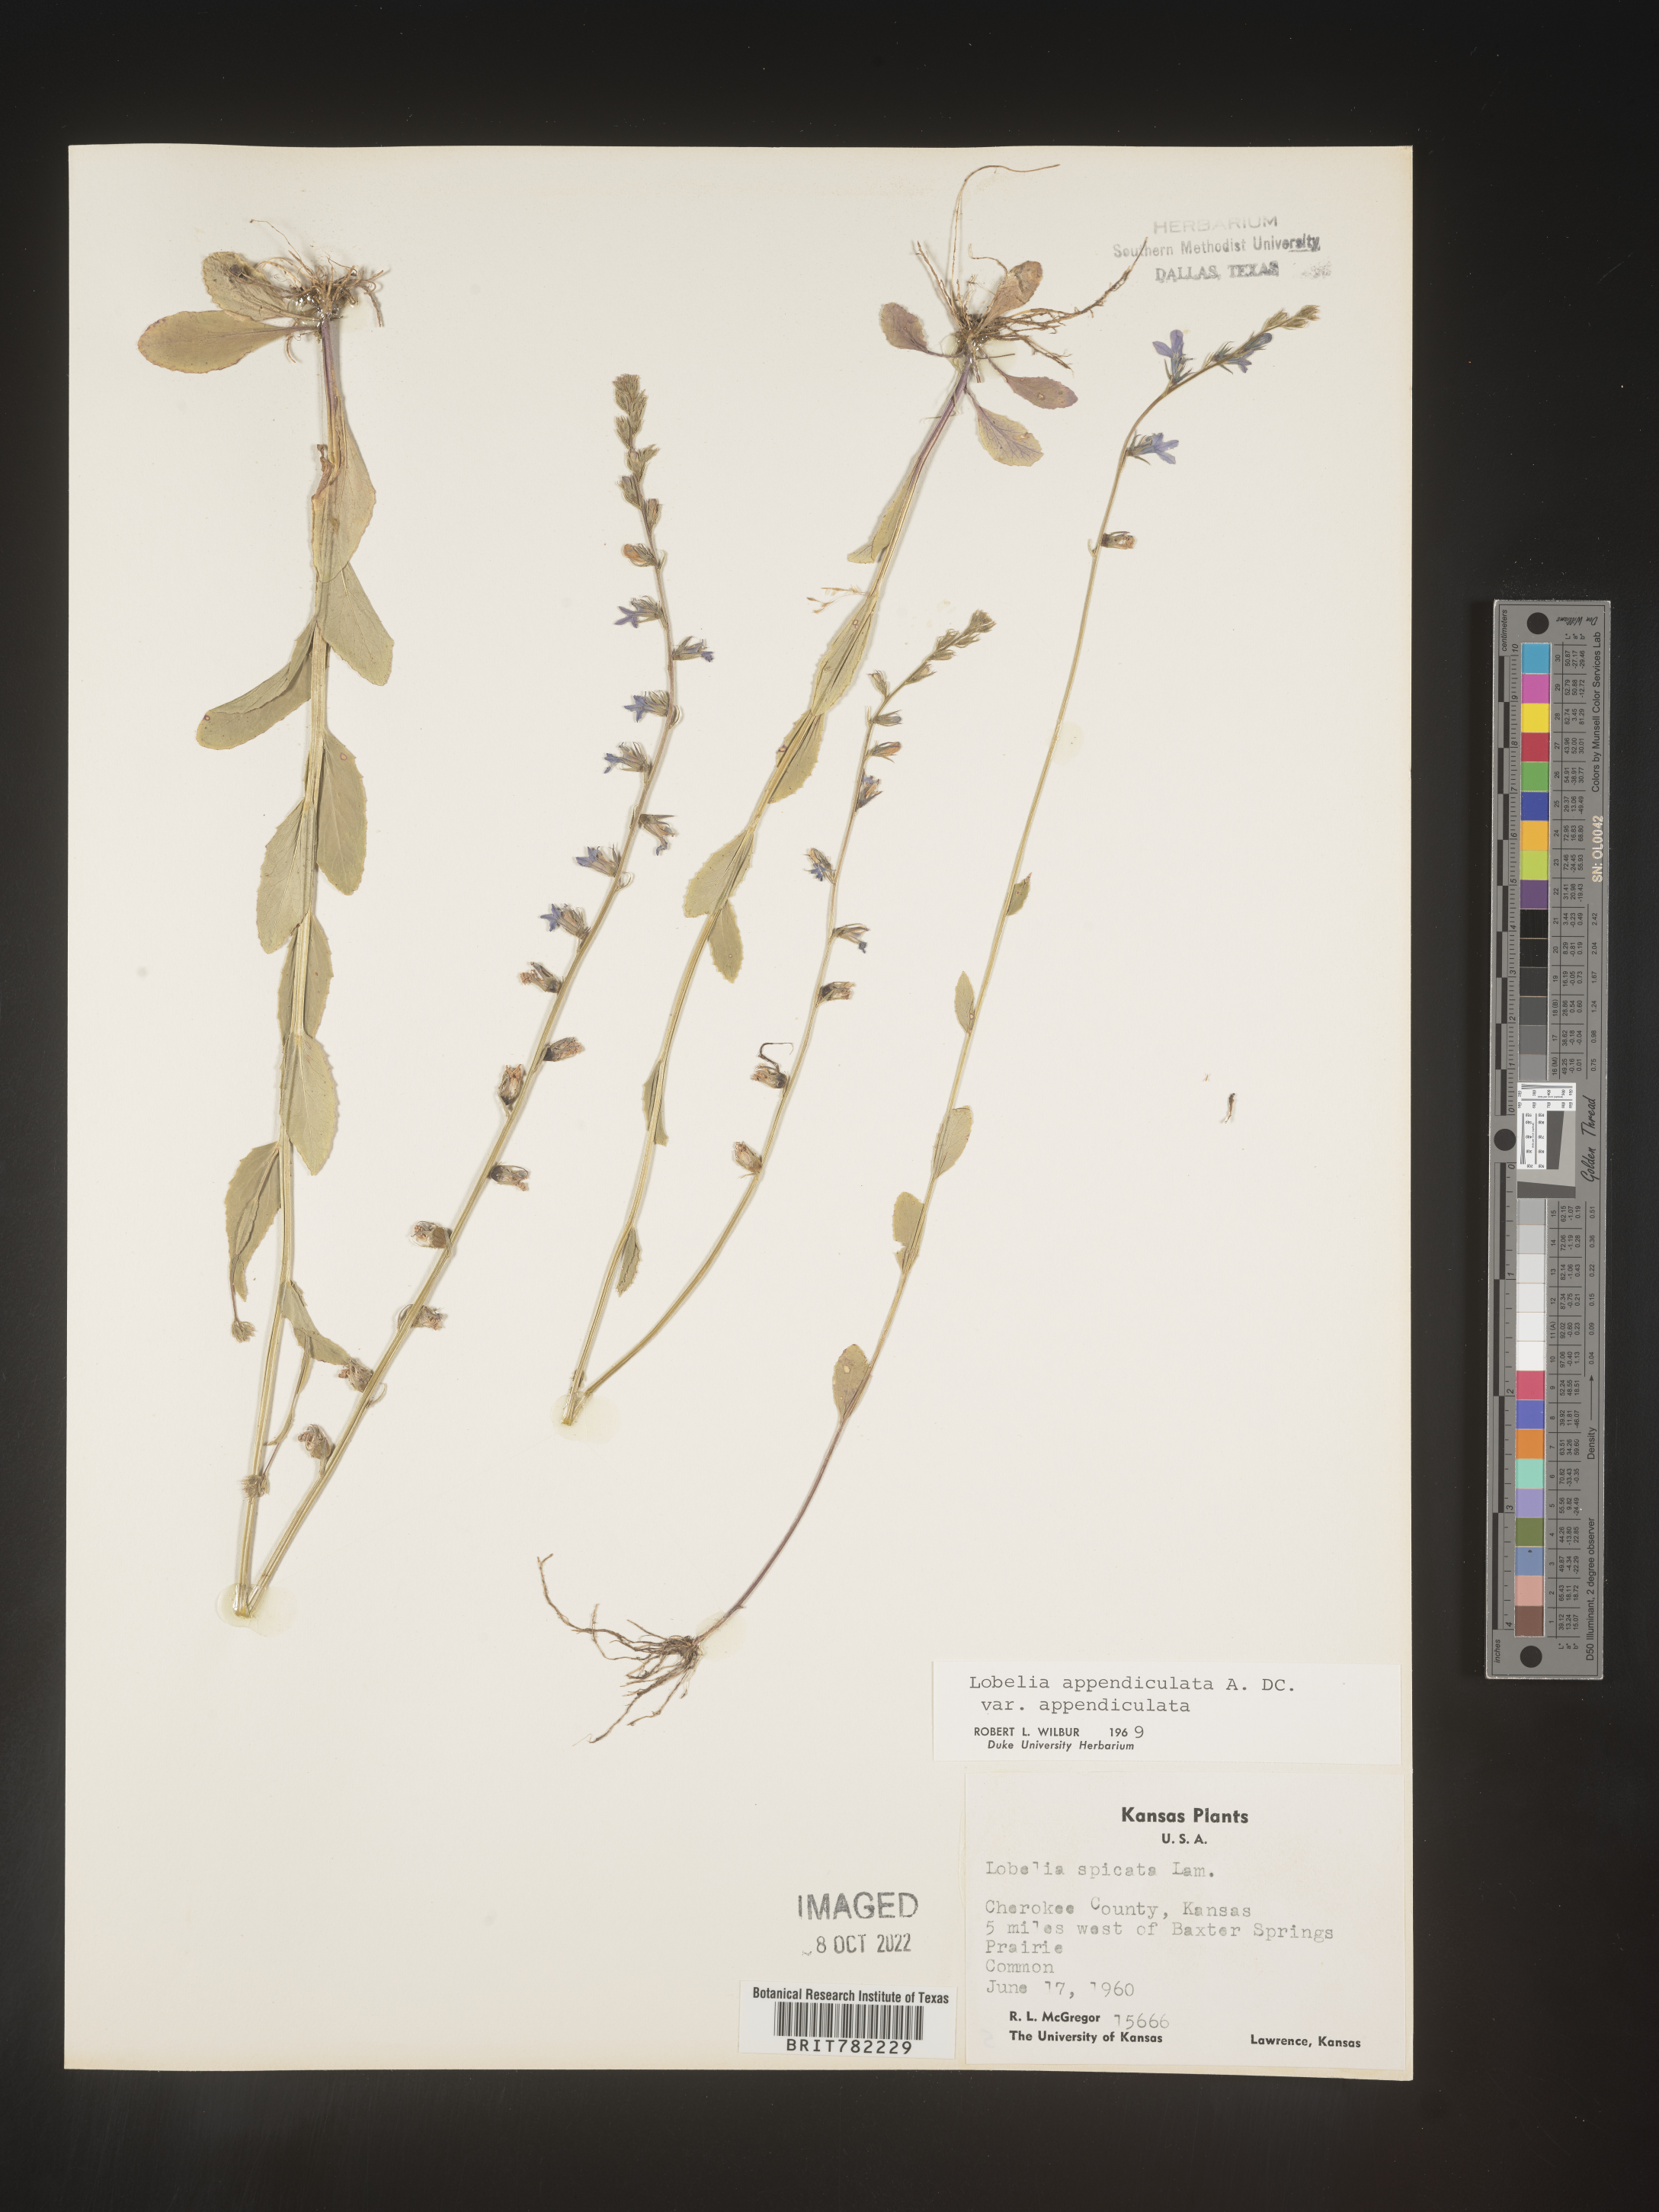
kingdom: Plantae
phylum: Tracheophyta
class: Magnoliopsida
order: Asterales
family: Campanulaceae
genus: Lobelia
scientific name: Lobelia appendiculata
